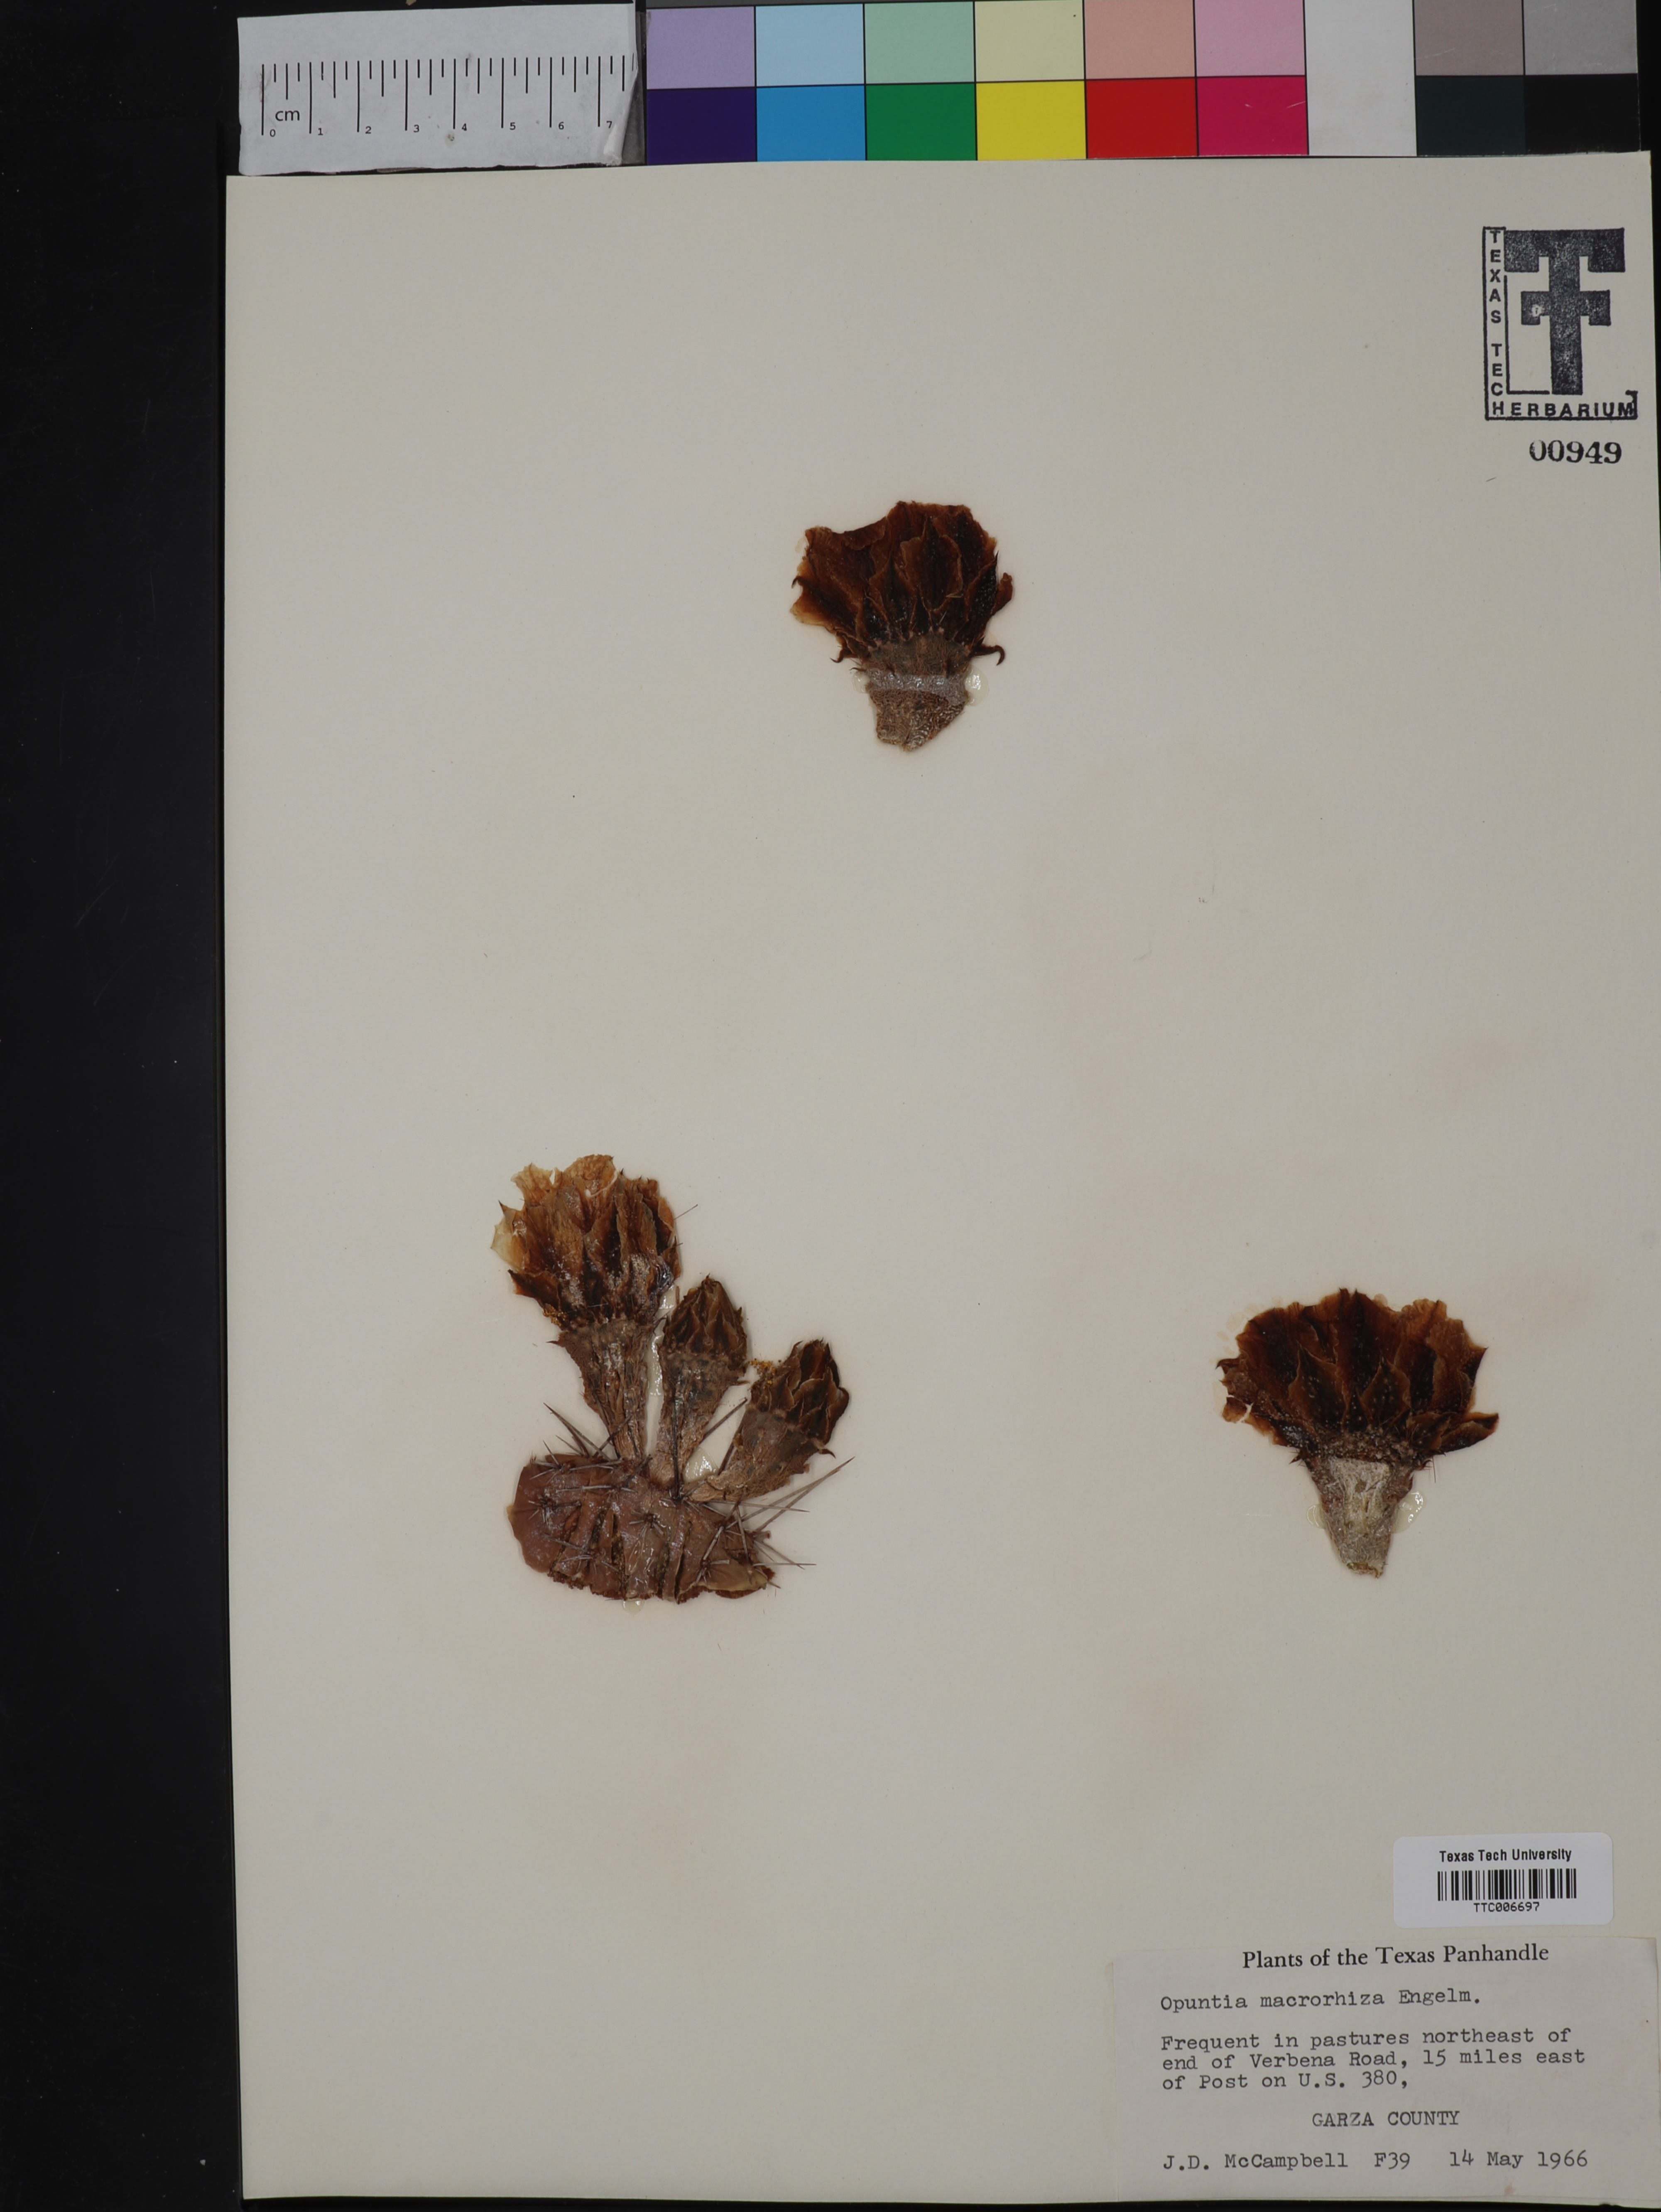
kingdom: Plantae
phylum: Tracheophyta
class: Magnoliopsida
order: Caryophyllales
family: Cactaceae
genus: Opuntia
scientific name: Opuntia macrorhiza
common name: Grassland pricklypear
